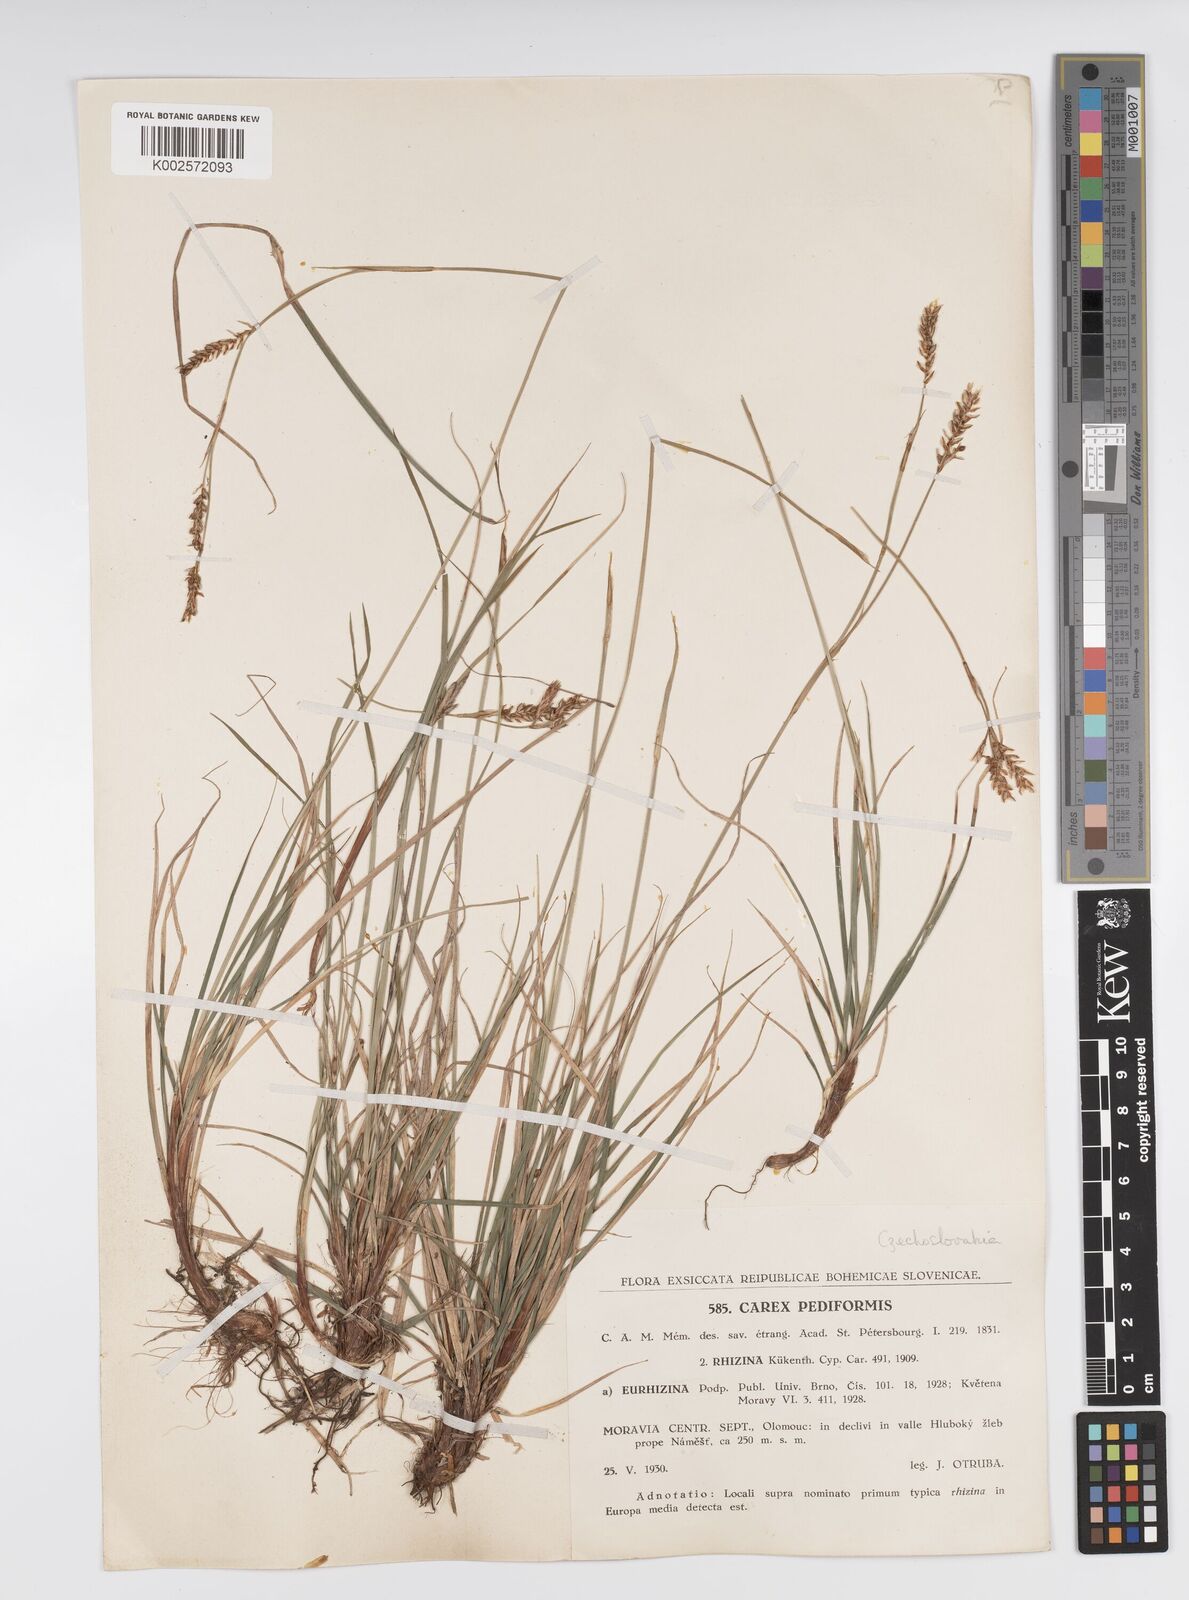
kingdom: Plantae
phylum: Tracheophyta
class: Liliopsida
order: Poales
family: Cyperaceae
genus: Carex
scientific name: Carex pediformis
